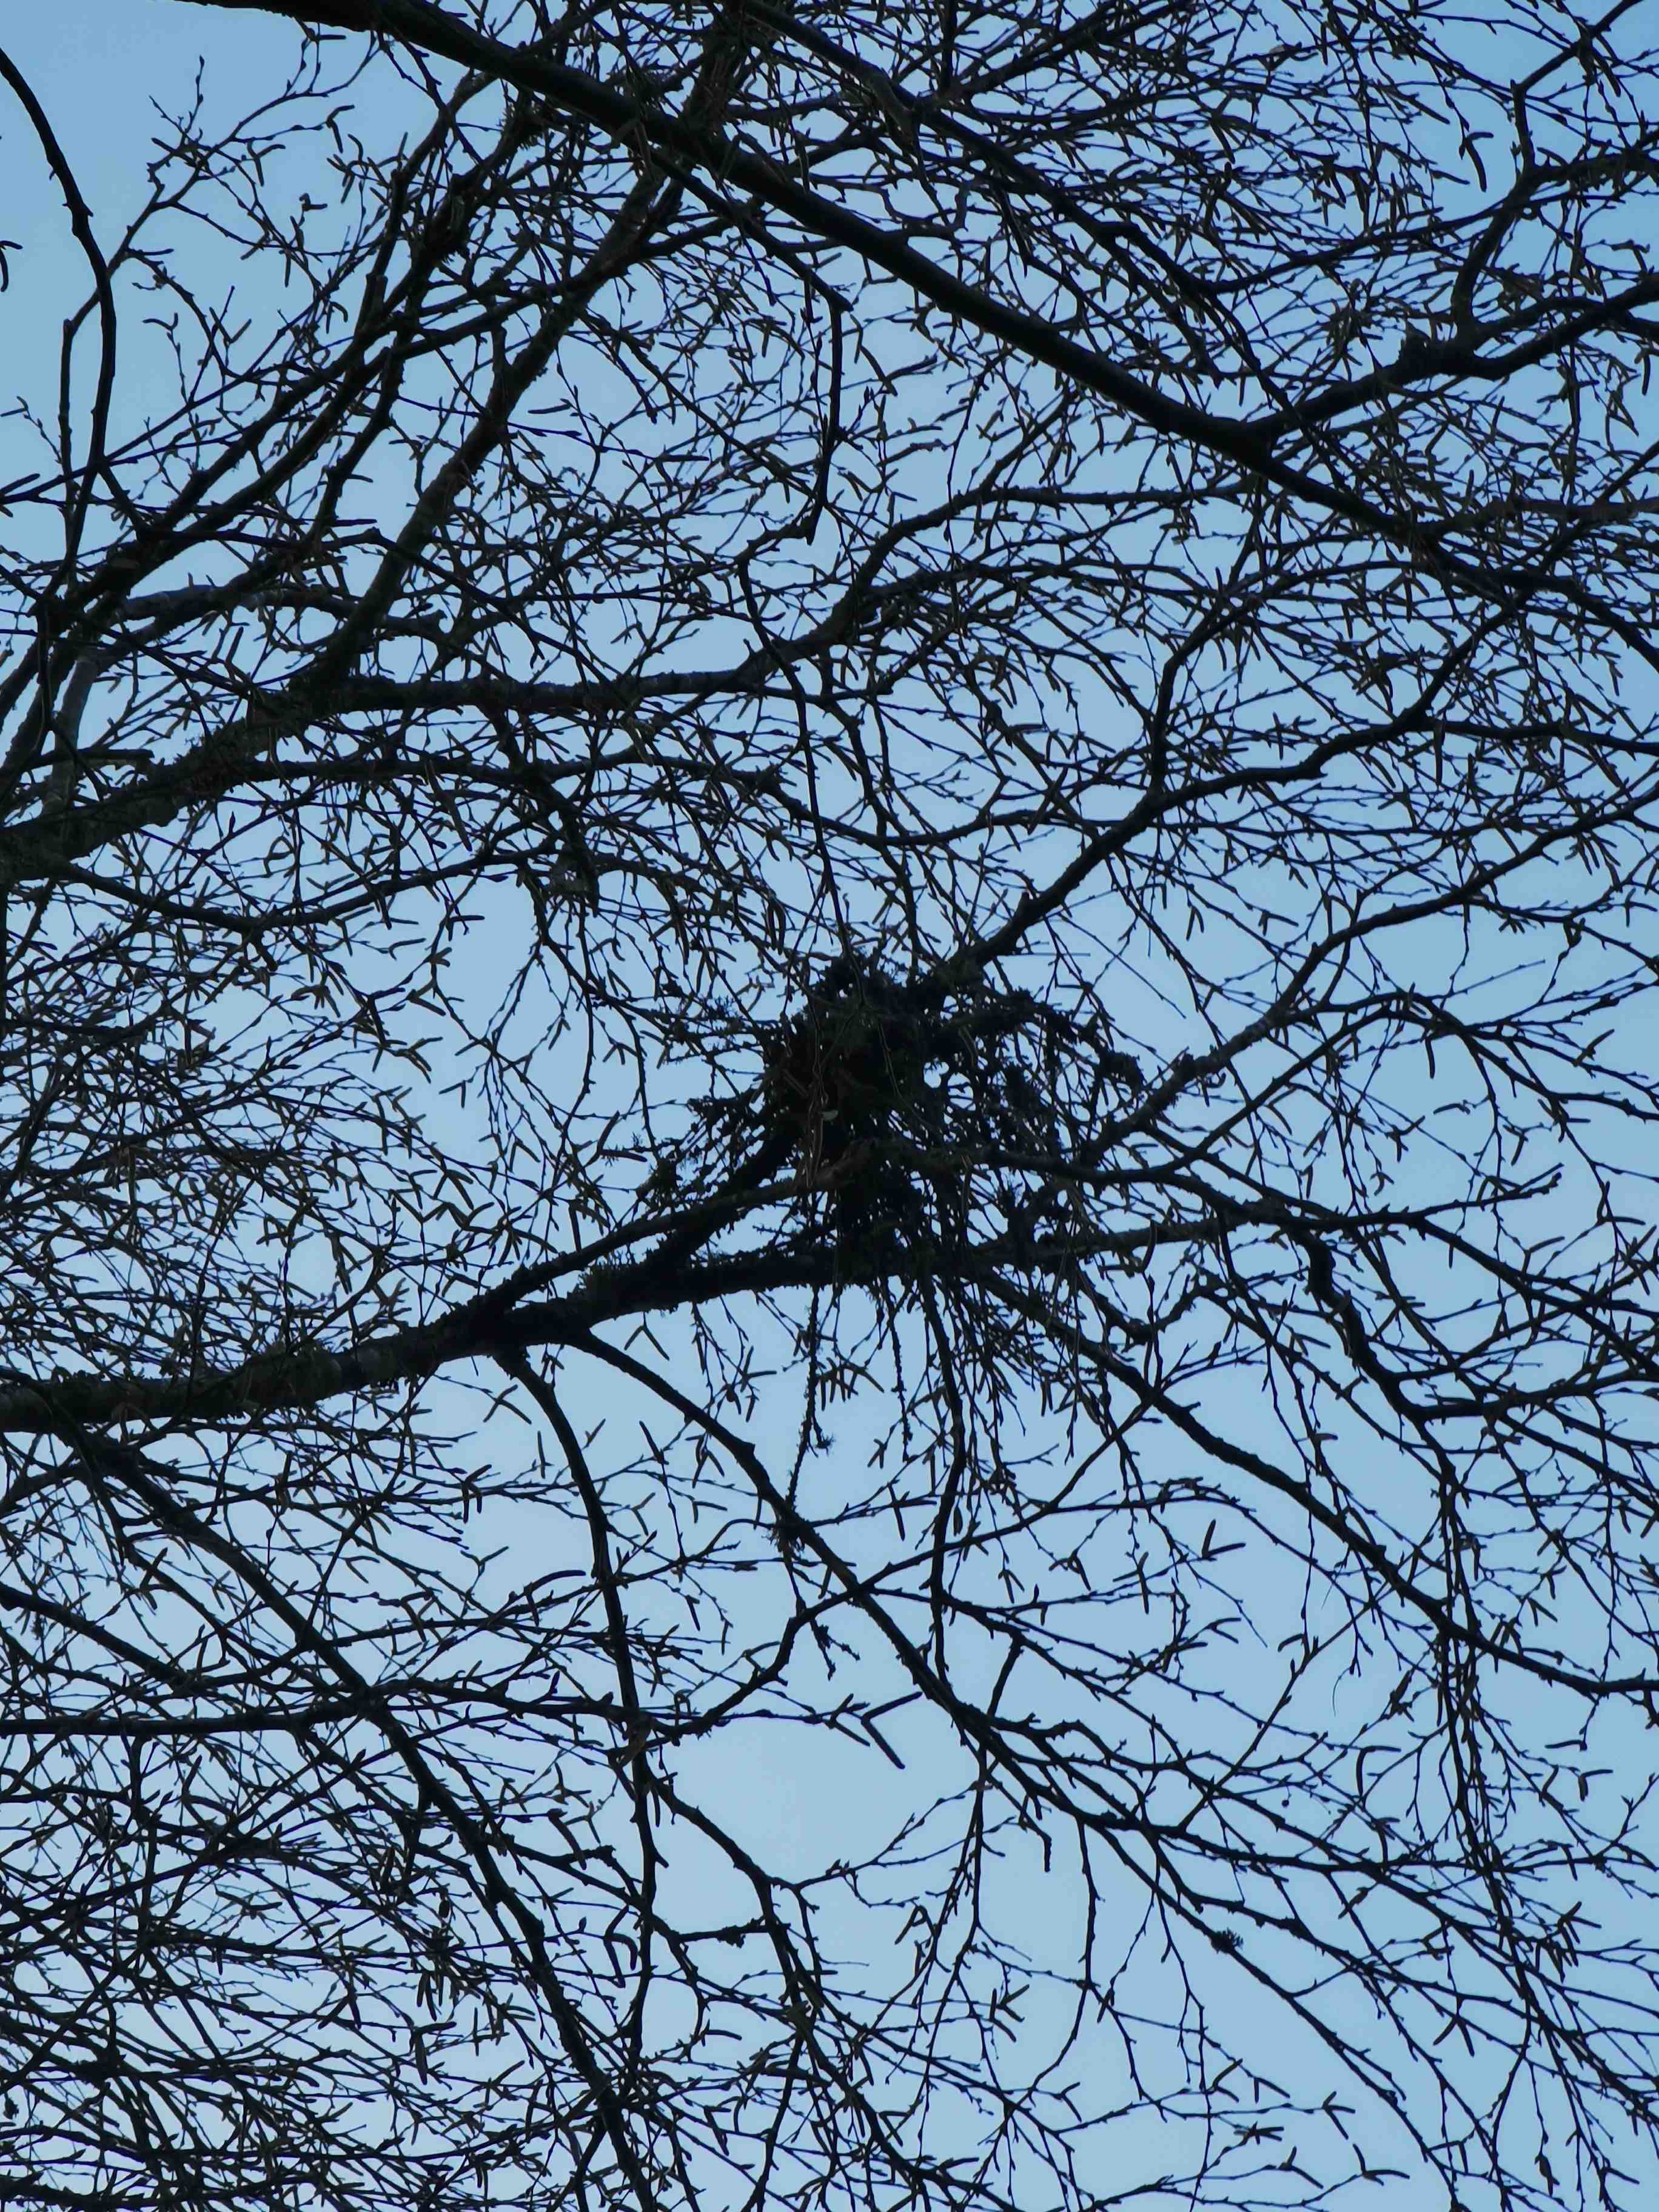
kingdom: Fungi
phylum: Ascomycota
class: Taphrinomycetes
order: Taphrinales
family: Taphrinaceae
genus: Taphrina
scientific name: Taphrina betulina
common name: hekse-sækdug
